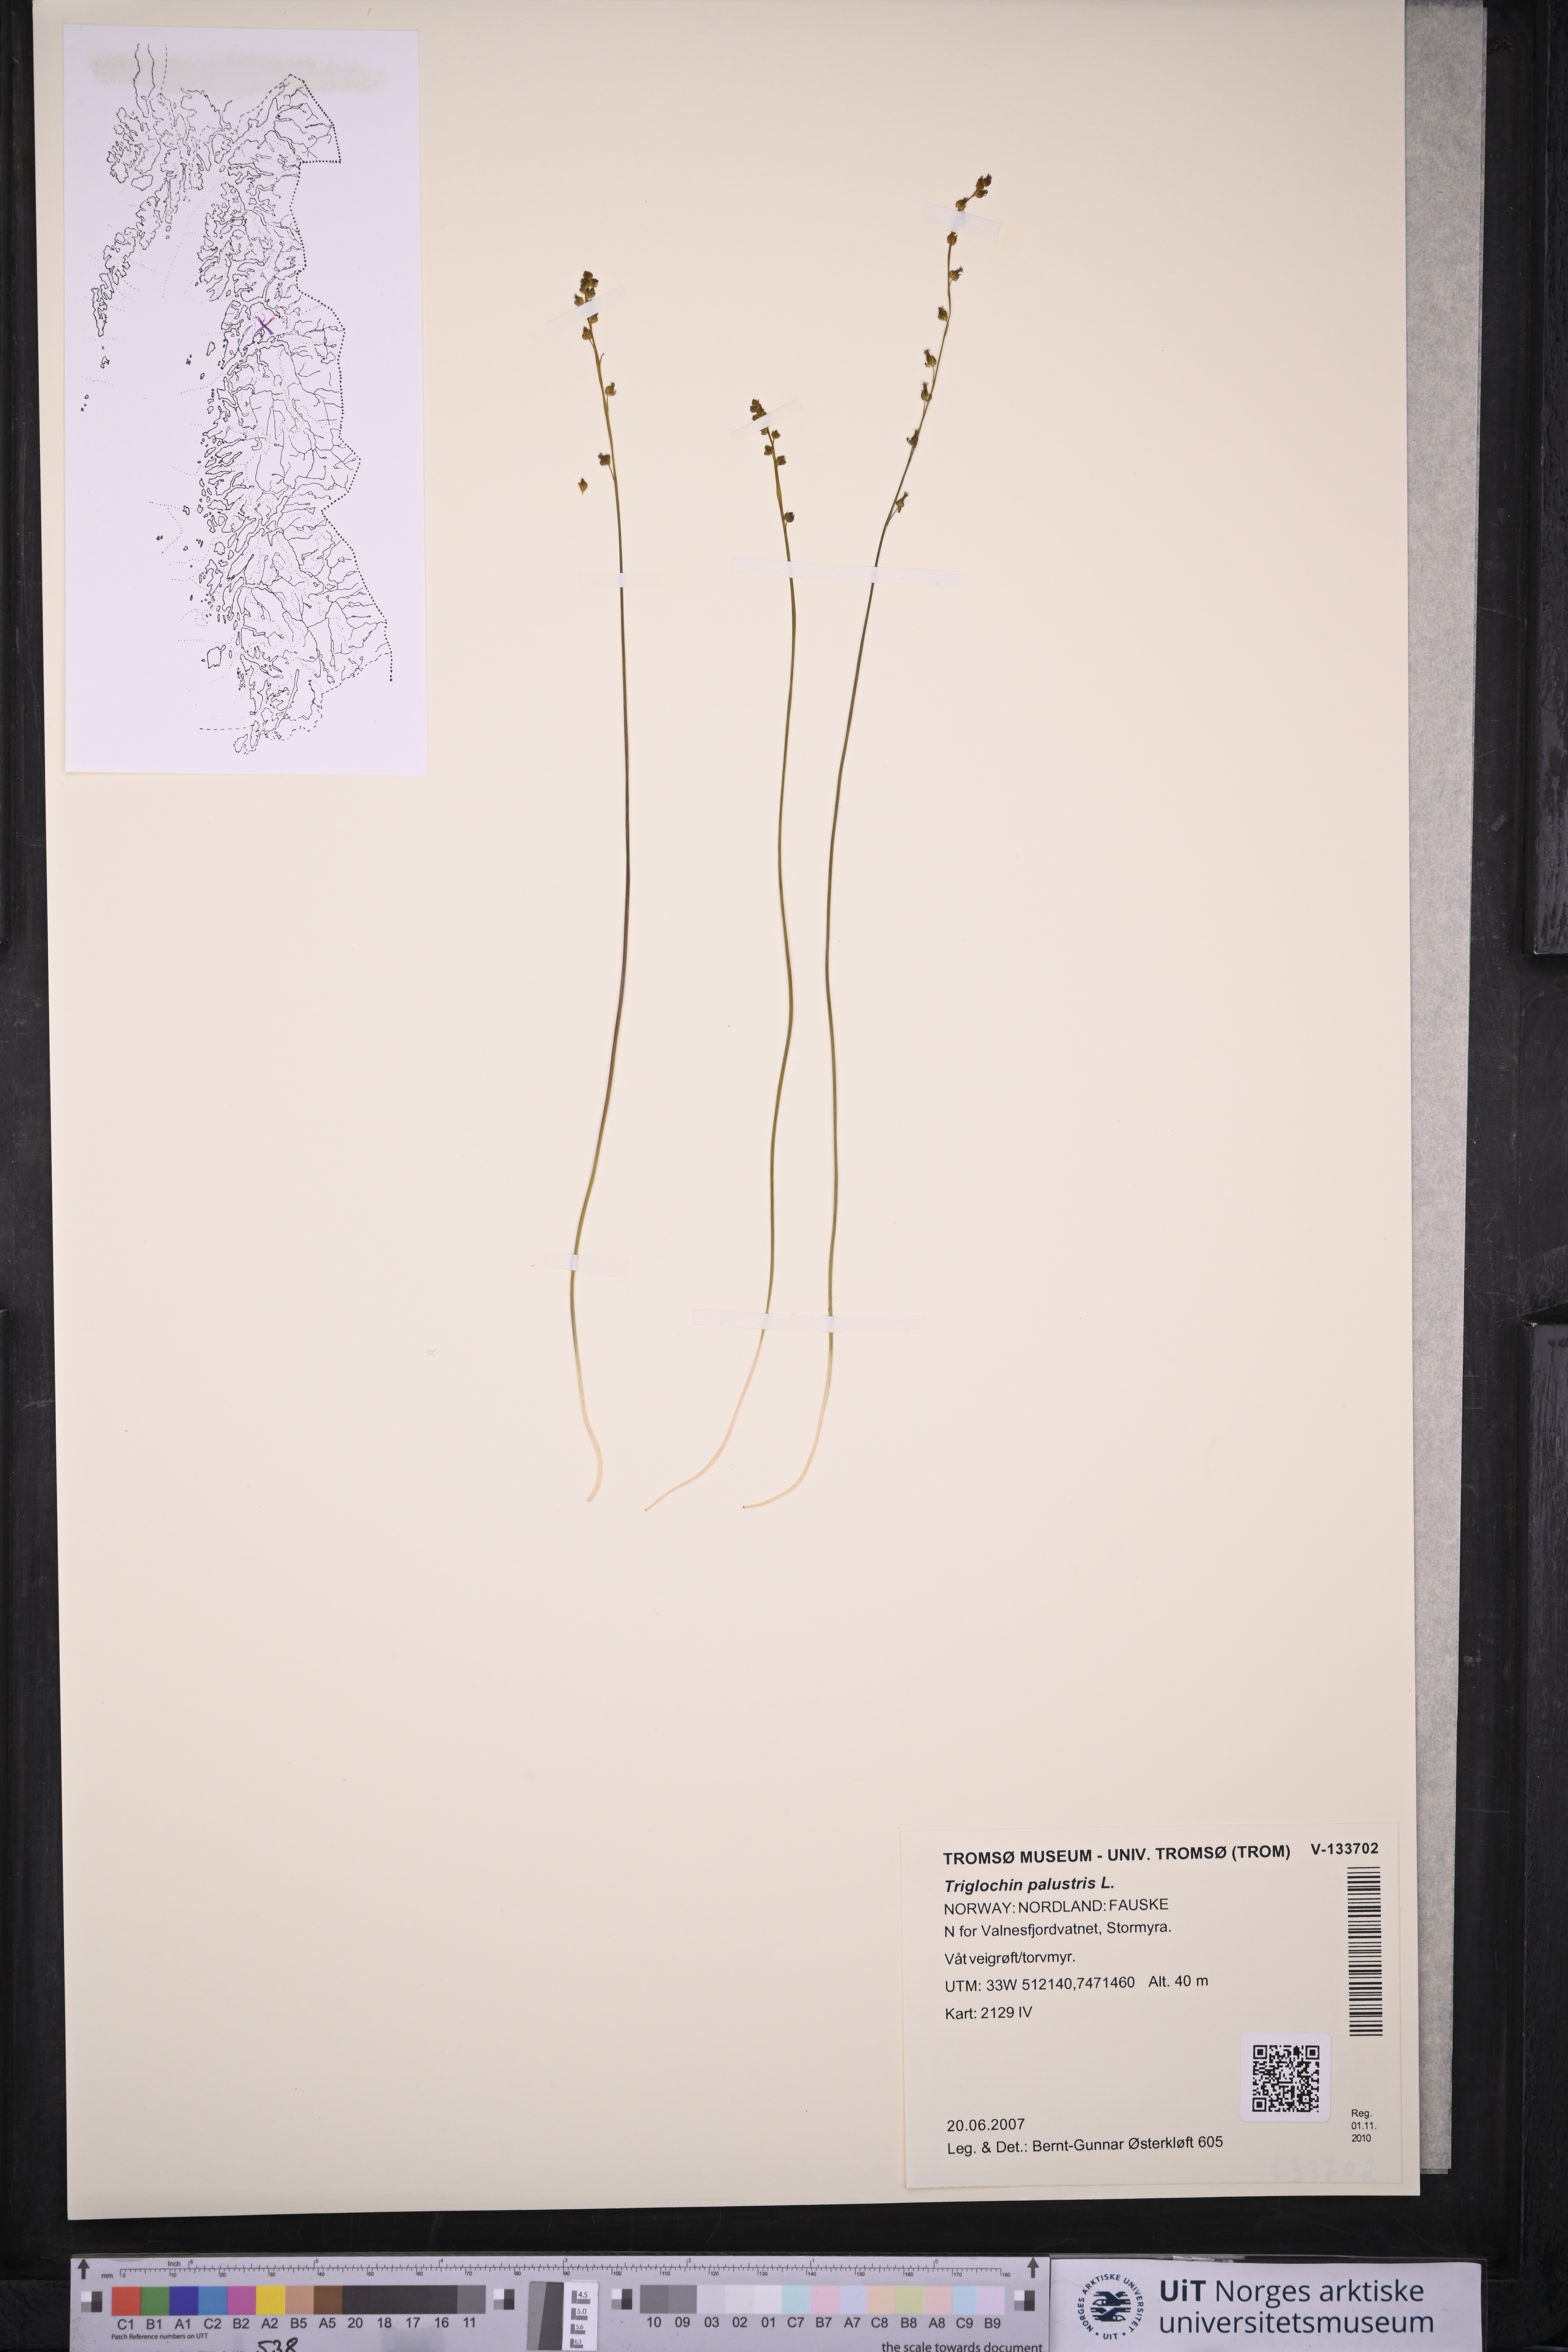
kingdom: Plantae
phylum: Tracheophyta
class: Liliopsida
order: Alismatales
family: Juncaginaceae
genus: Triglochin
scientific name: Triglochin palustris
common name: Marsh arrowgrass
